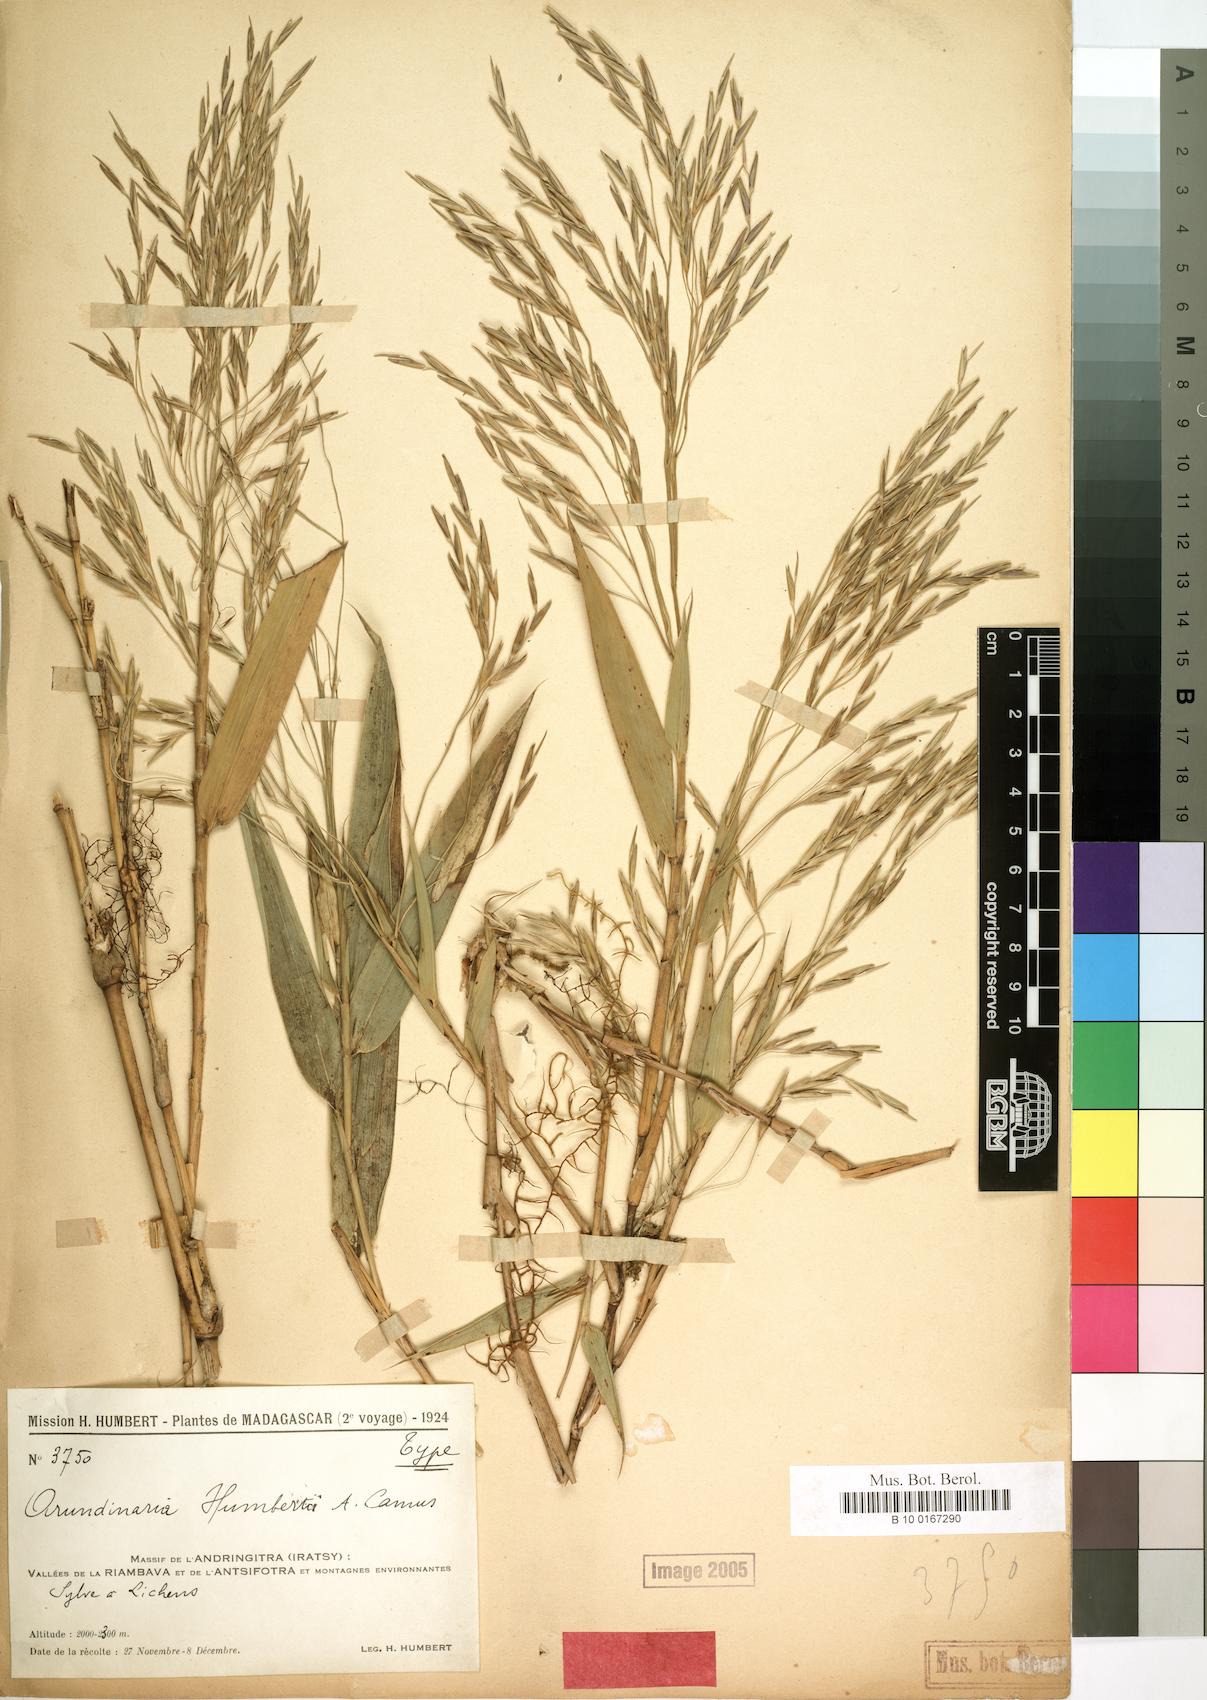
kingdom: Plantae
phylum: Tracheophyta
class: Liliopsida
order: Poales
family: Poaceae
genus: Oldeania
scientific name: Oldeania humbertii
